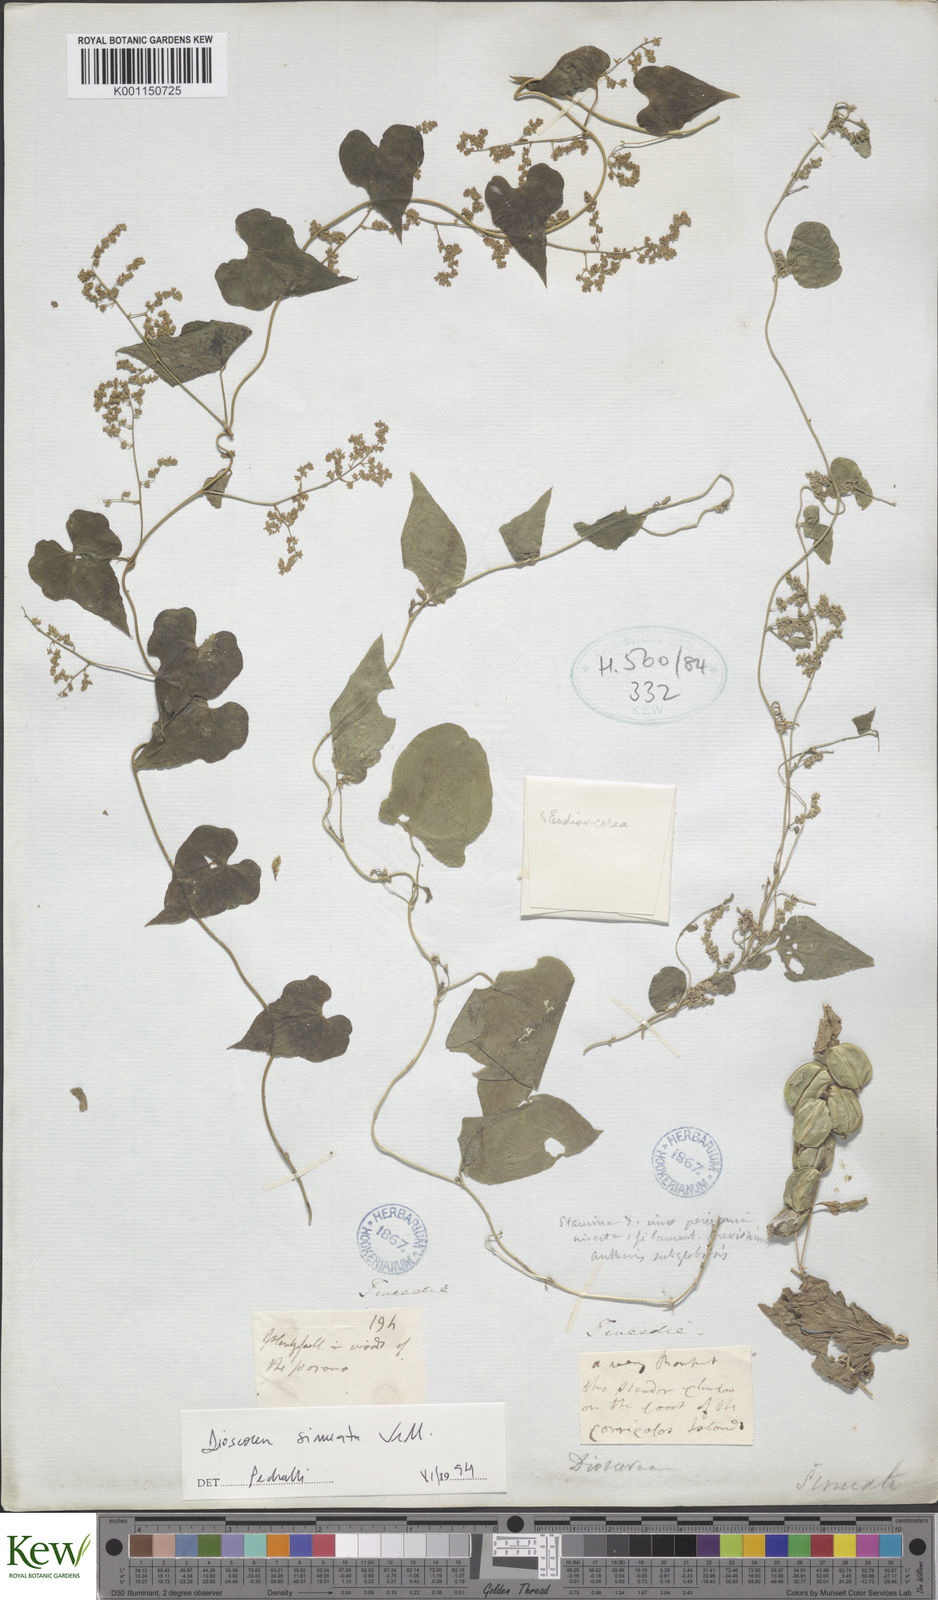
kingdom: Plantae
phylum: Tracheophyta
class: Liliopsida
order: Dioscoreales
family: Dioscoreaceae
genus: Dioscorea
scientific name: Dioscorea sinuata
